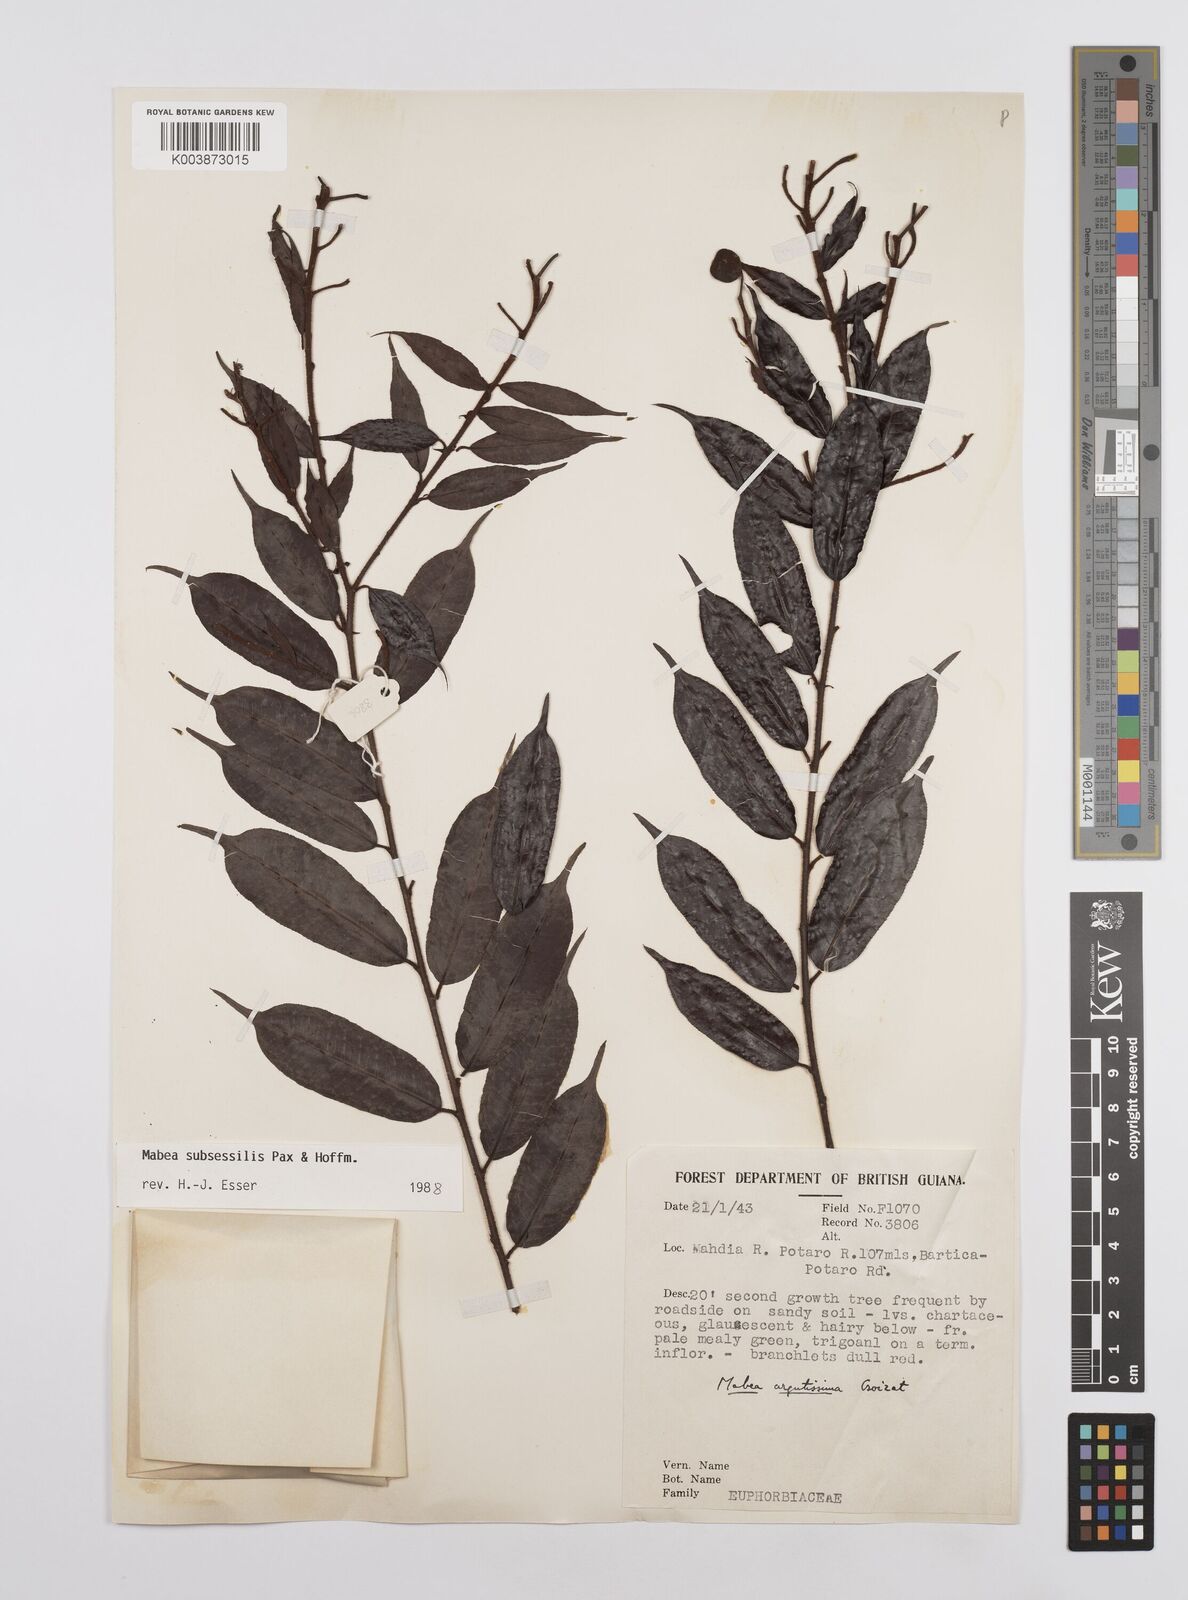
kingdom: Plantae
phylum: Tracheophyta
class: Magnoliopsida
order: Malpighiales
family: Euphorbiaceae
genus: Mabea
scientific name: Mabea subsessilis
